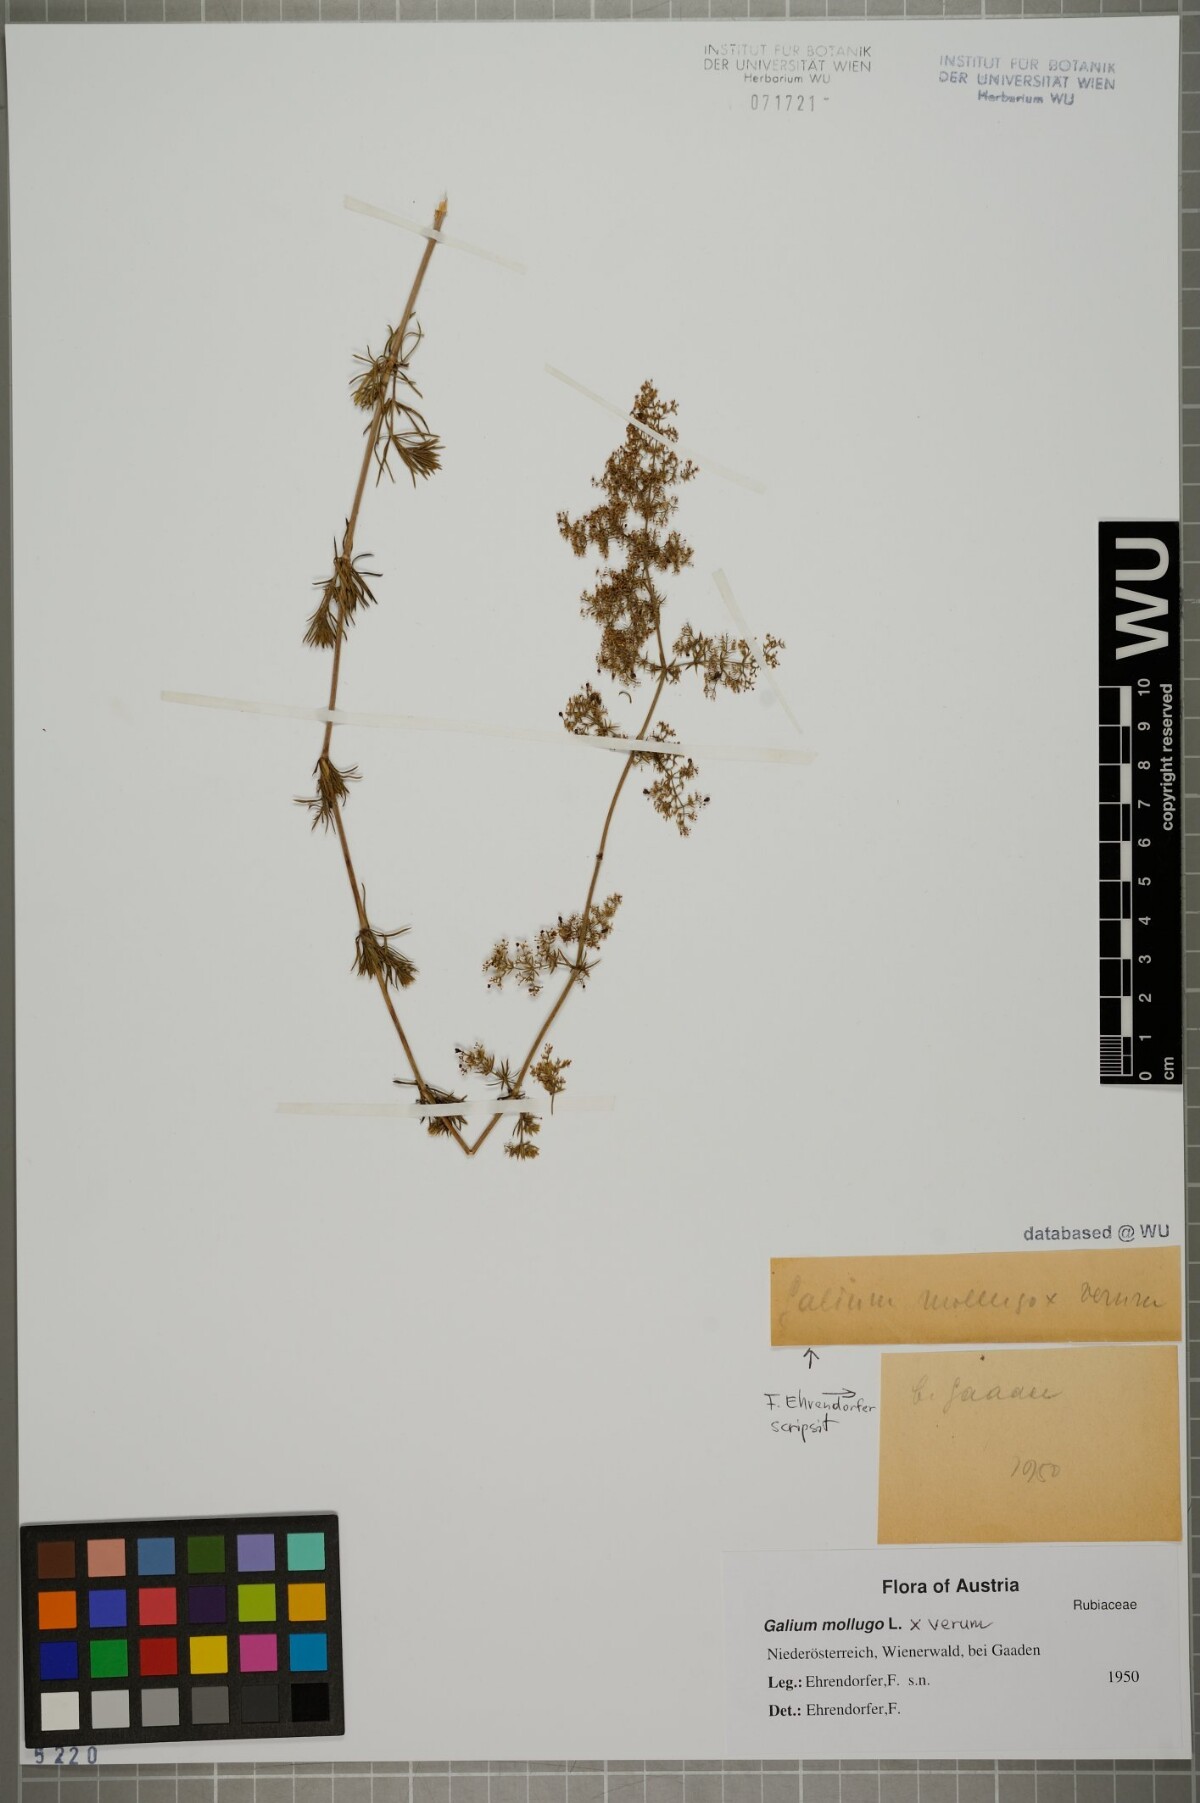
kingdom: Plantae
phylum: Tracheophyta
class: Magnoliopsida
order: Gentianales
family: Rubiaceae
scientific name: Rubiaceae
